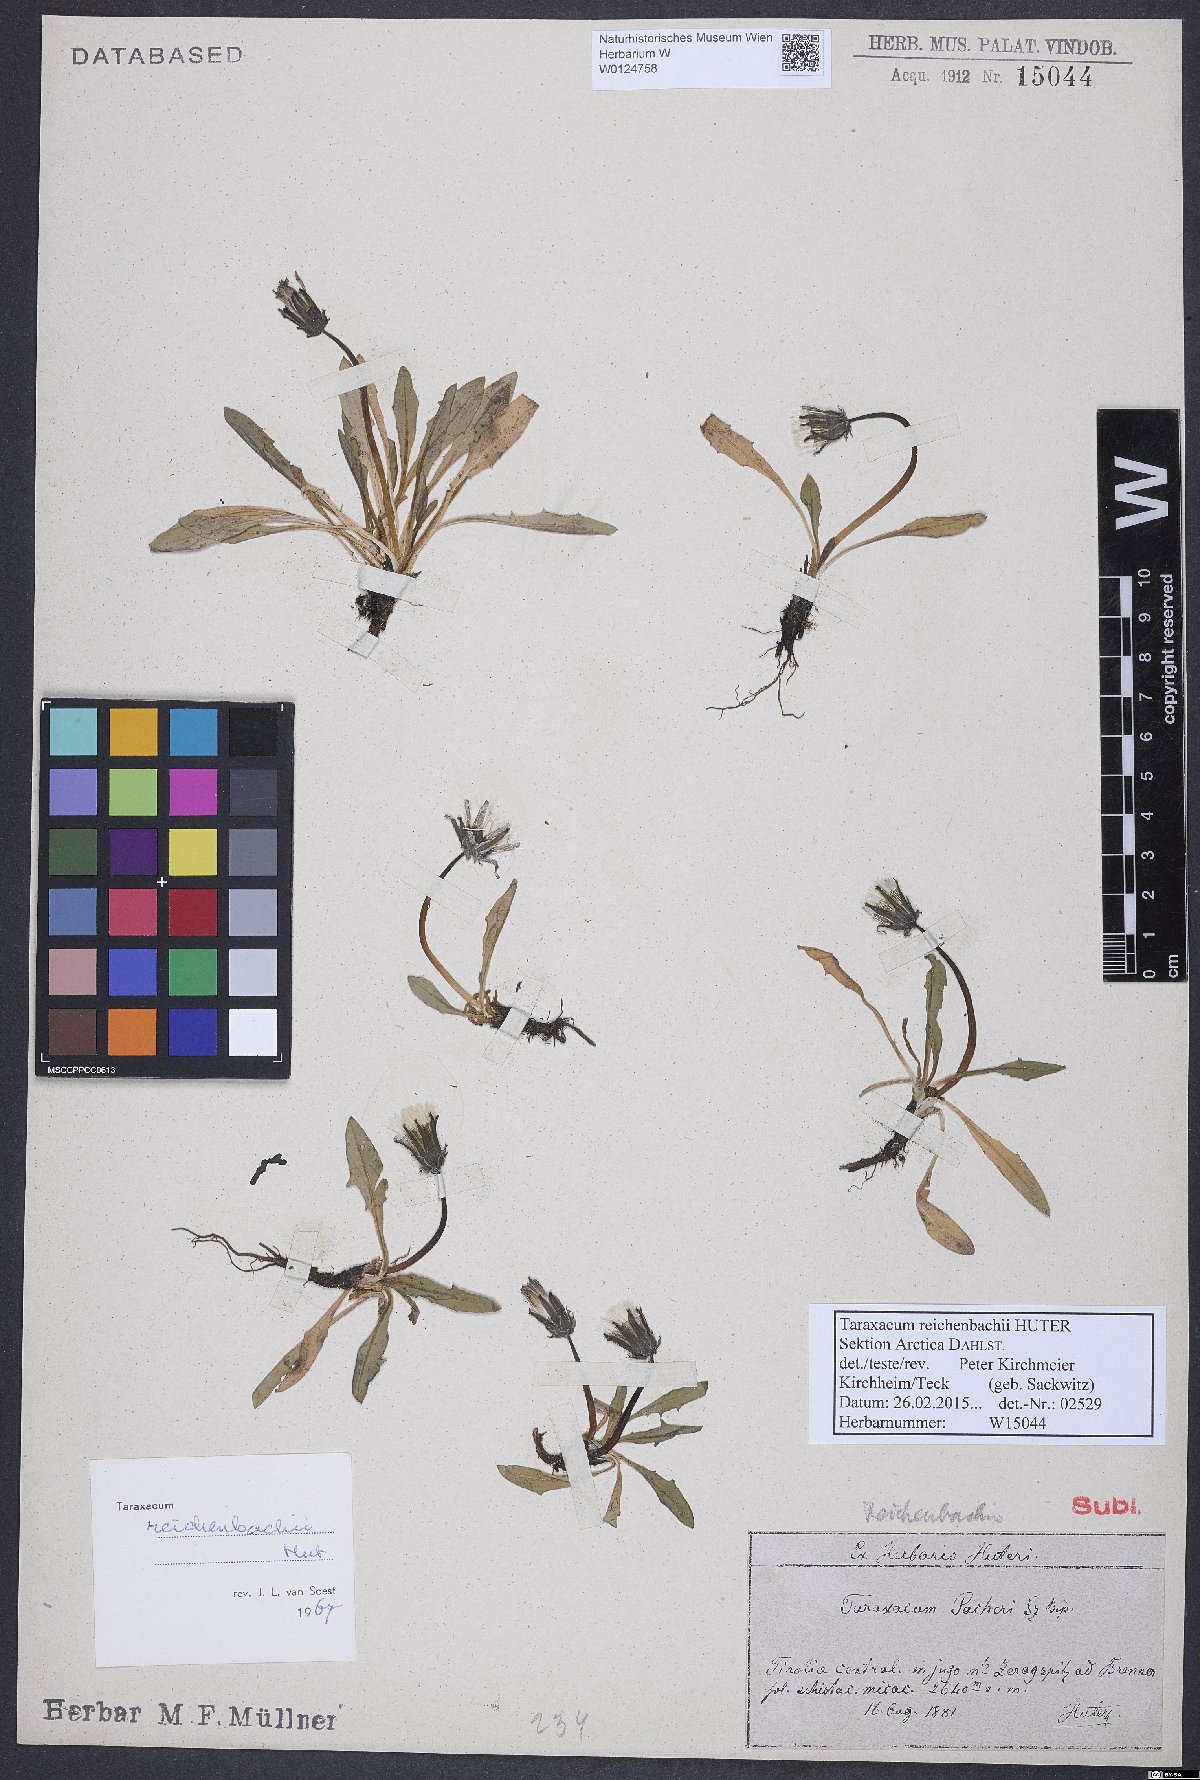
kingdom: Plantae
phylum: Tracheophyta
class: Magnoliopsida
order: Asterales
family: Asteraceae
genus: Taraxacum
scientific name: Taraxacum reichenbachii
